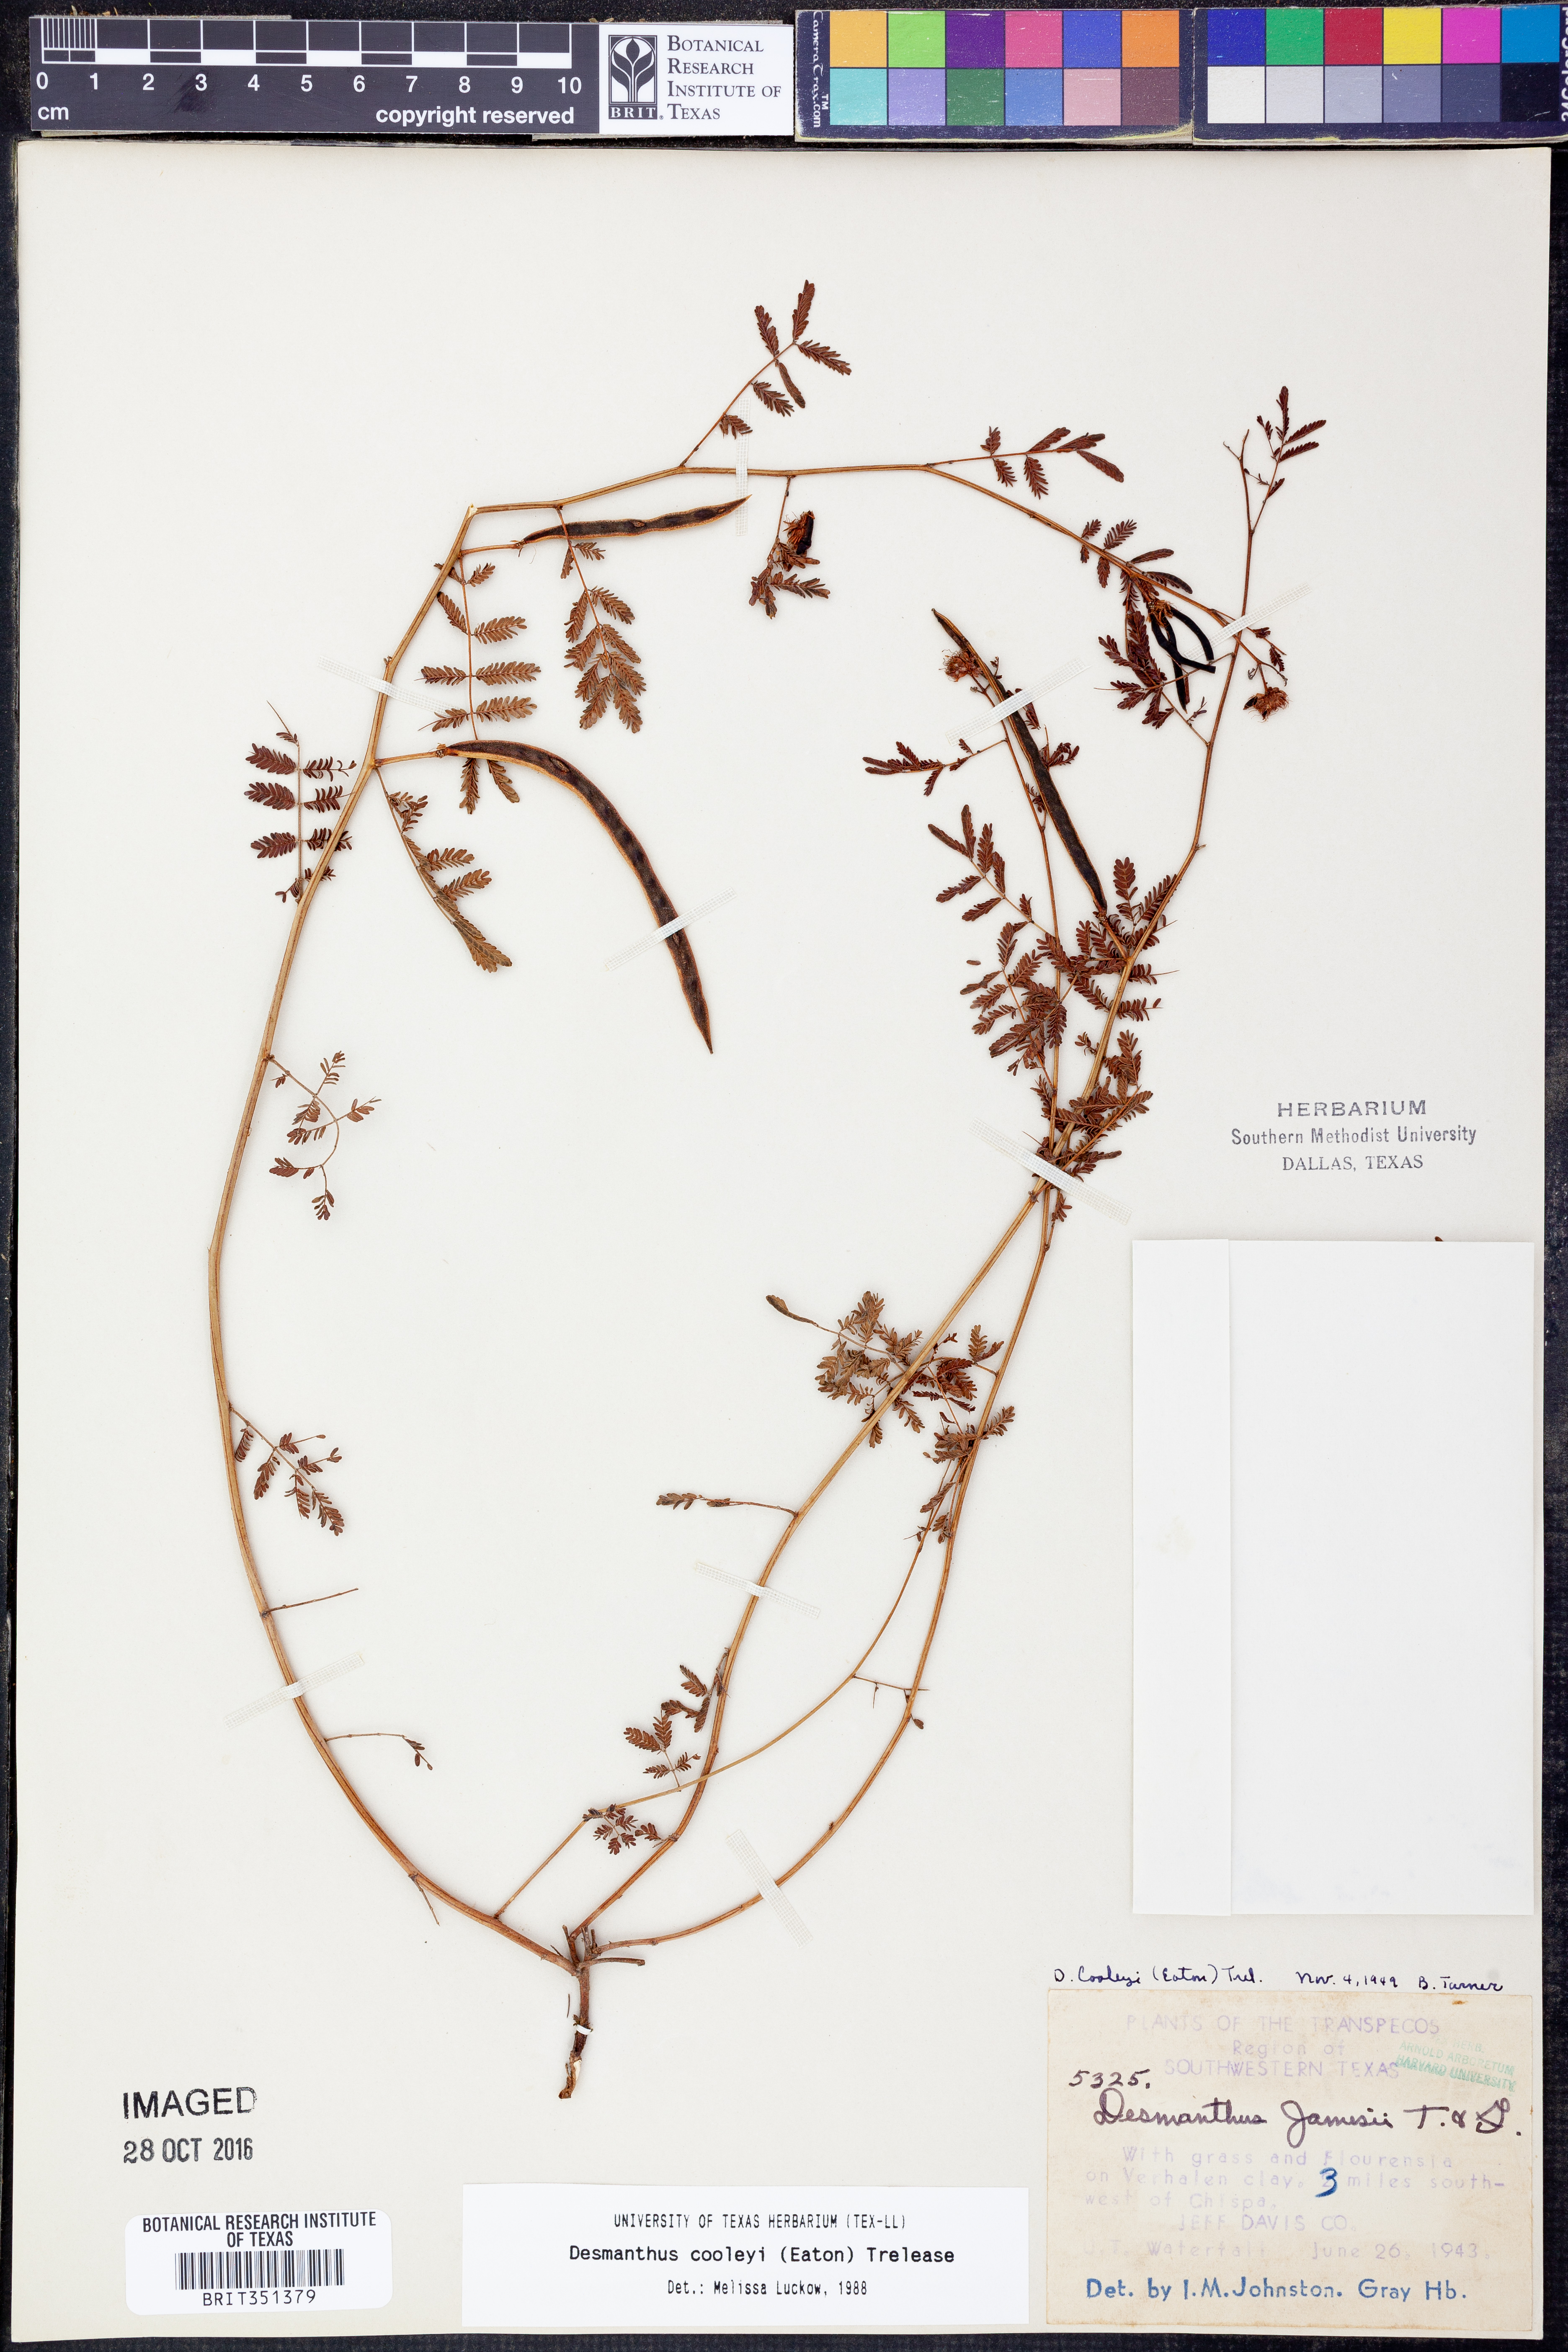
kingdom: Plantae
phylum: Tracheophyta
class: Magnoliopsida
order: Fabales
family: Fabaceae
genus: Desmanthus
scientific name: Desmanthus cooleyi
